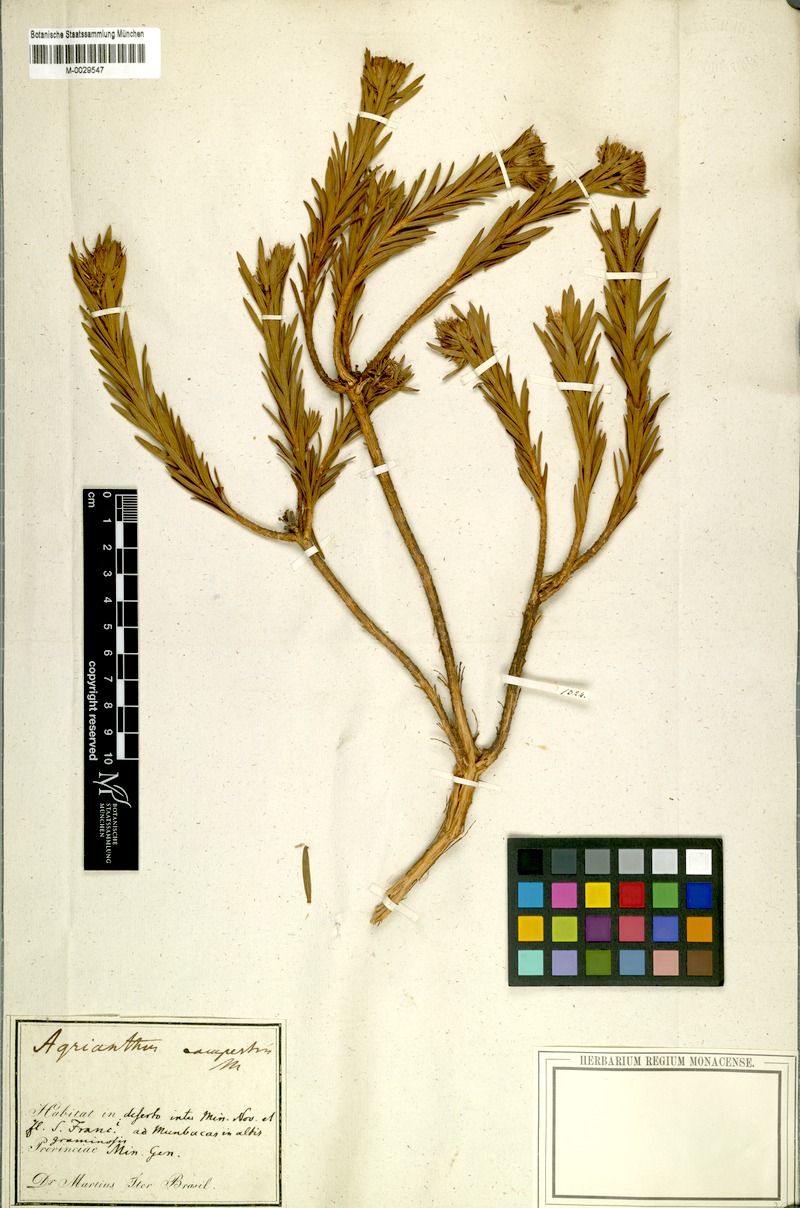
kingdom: Plantae
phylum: Tracheophyta
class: Magnoliopsida
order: Asterales
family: Asteraceae
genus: Agrianthus
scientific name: Agrianthus campestris
